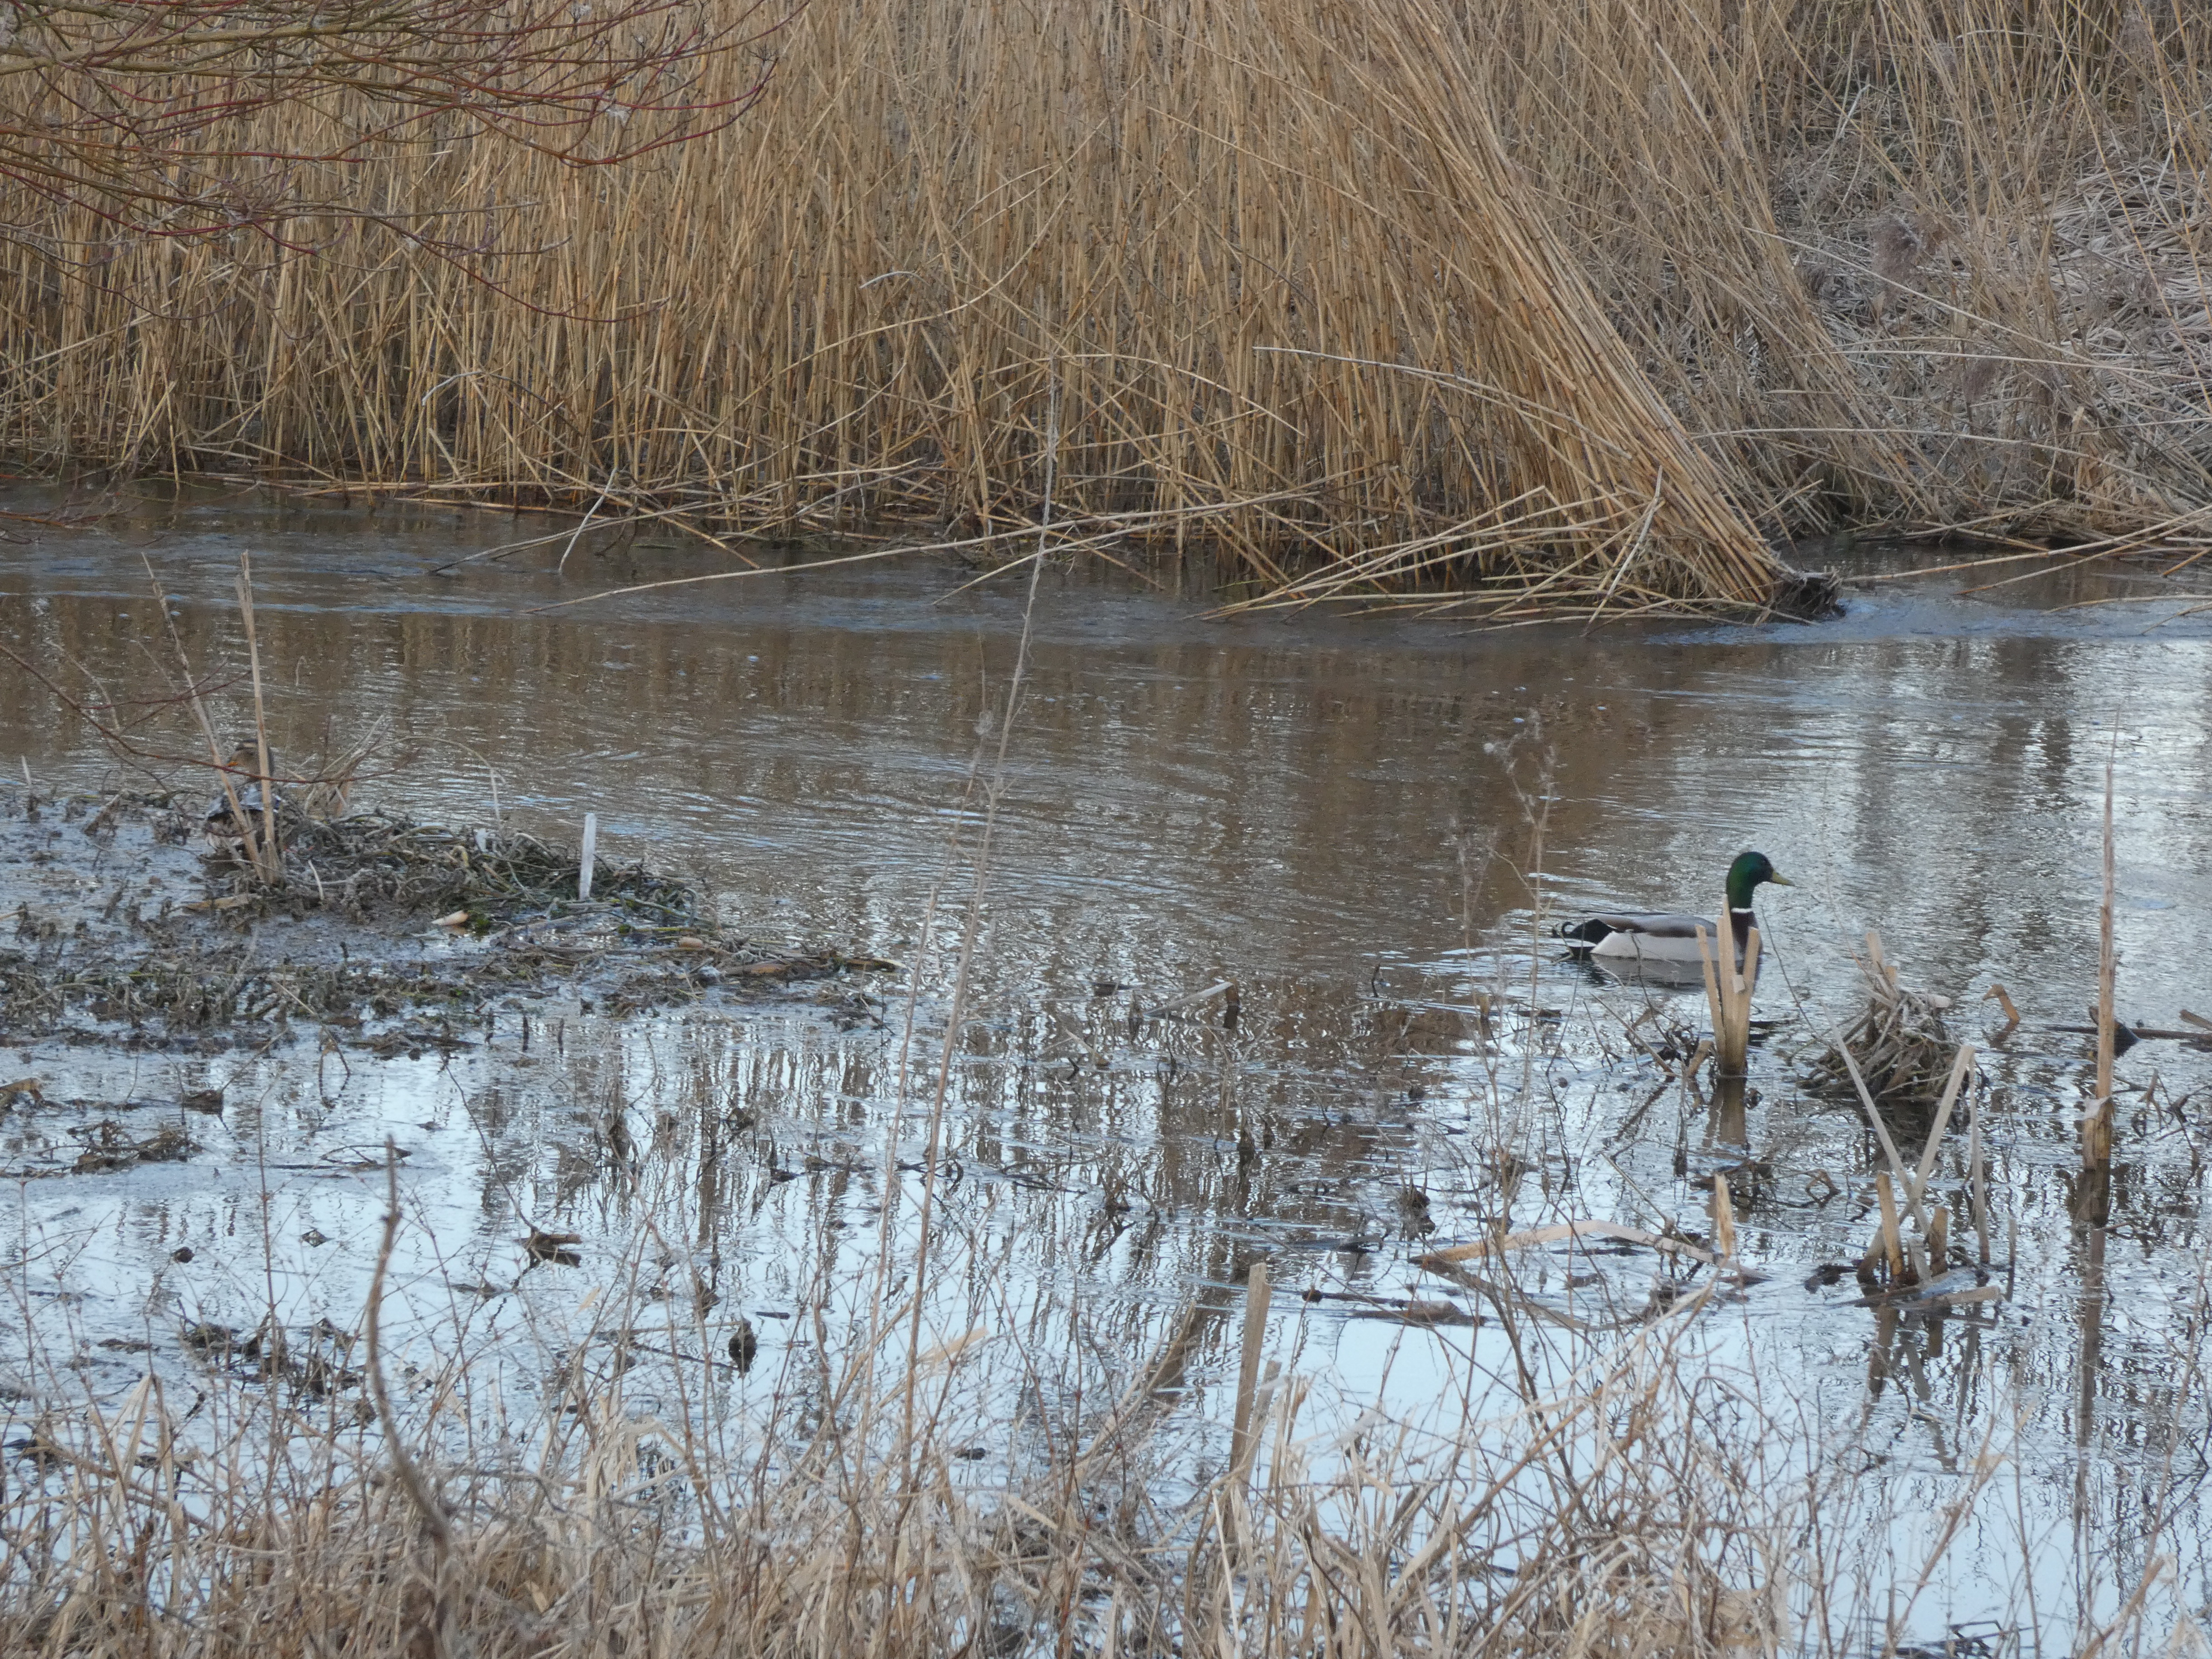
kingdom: Animalia
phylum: Chordata
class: Aves
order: Anseriformes
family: Anatidae
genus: Anas
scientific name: Anas platyrhynchos
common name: Gråand
